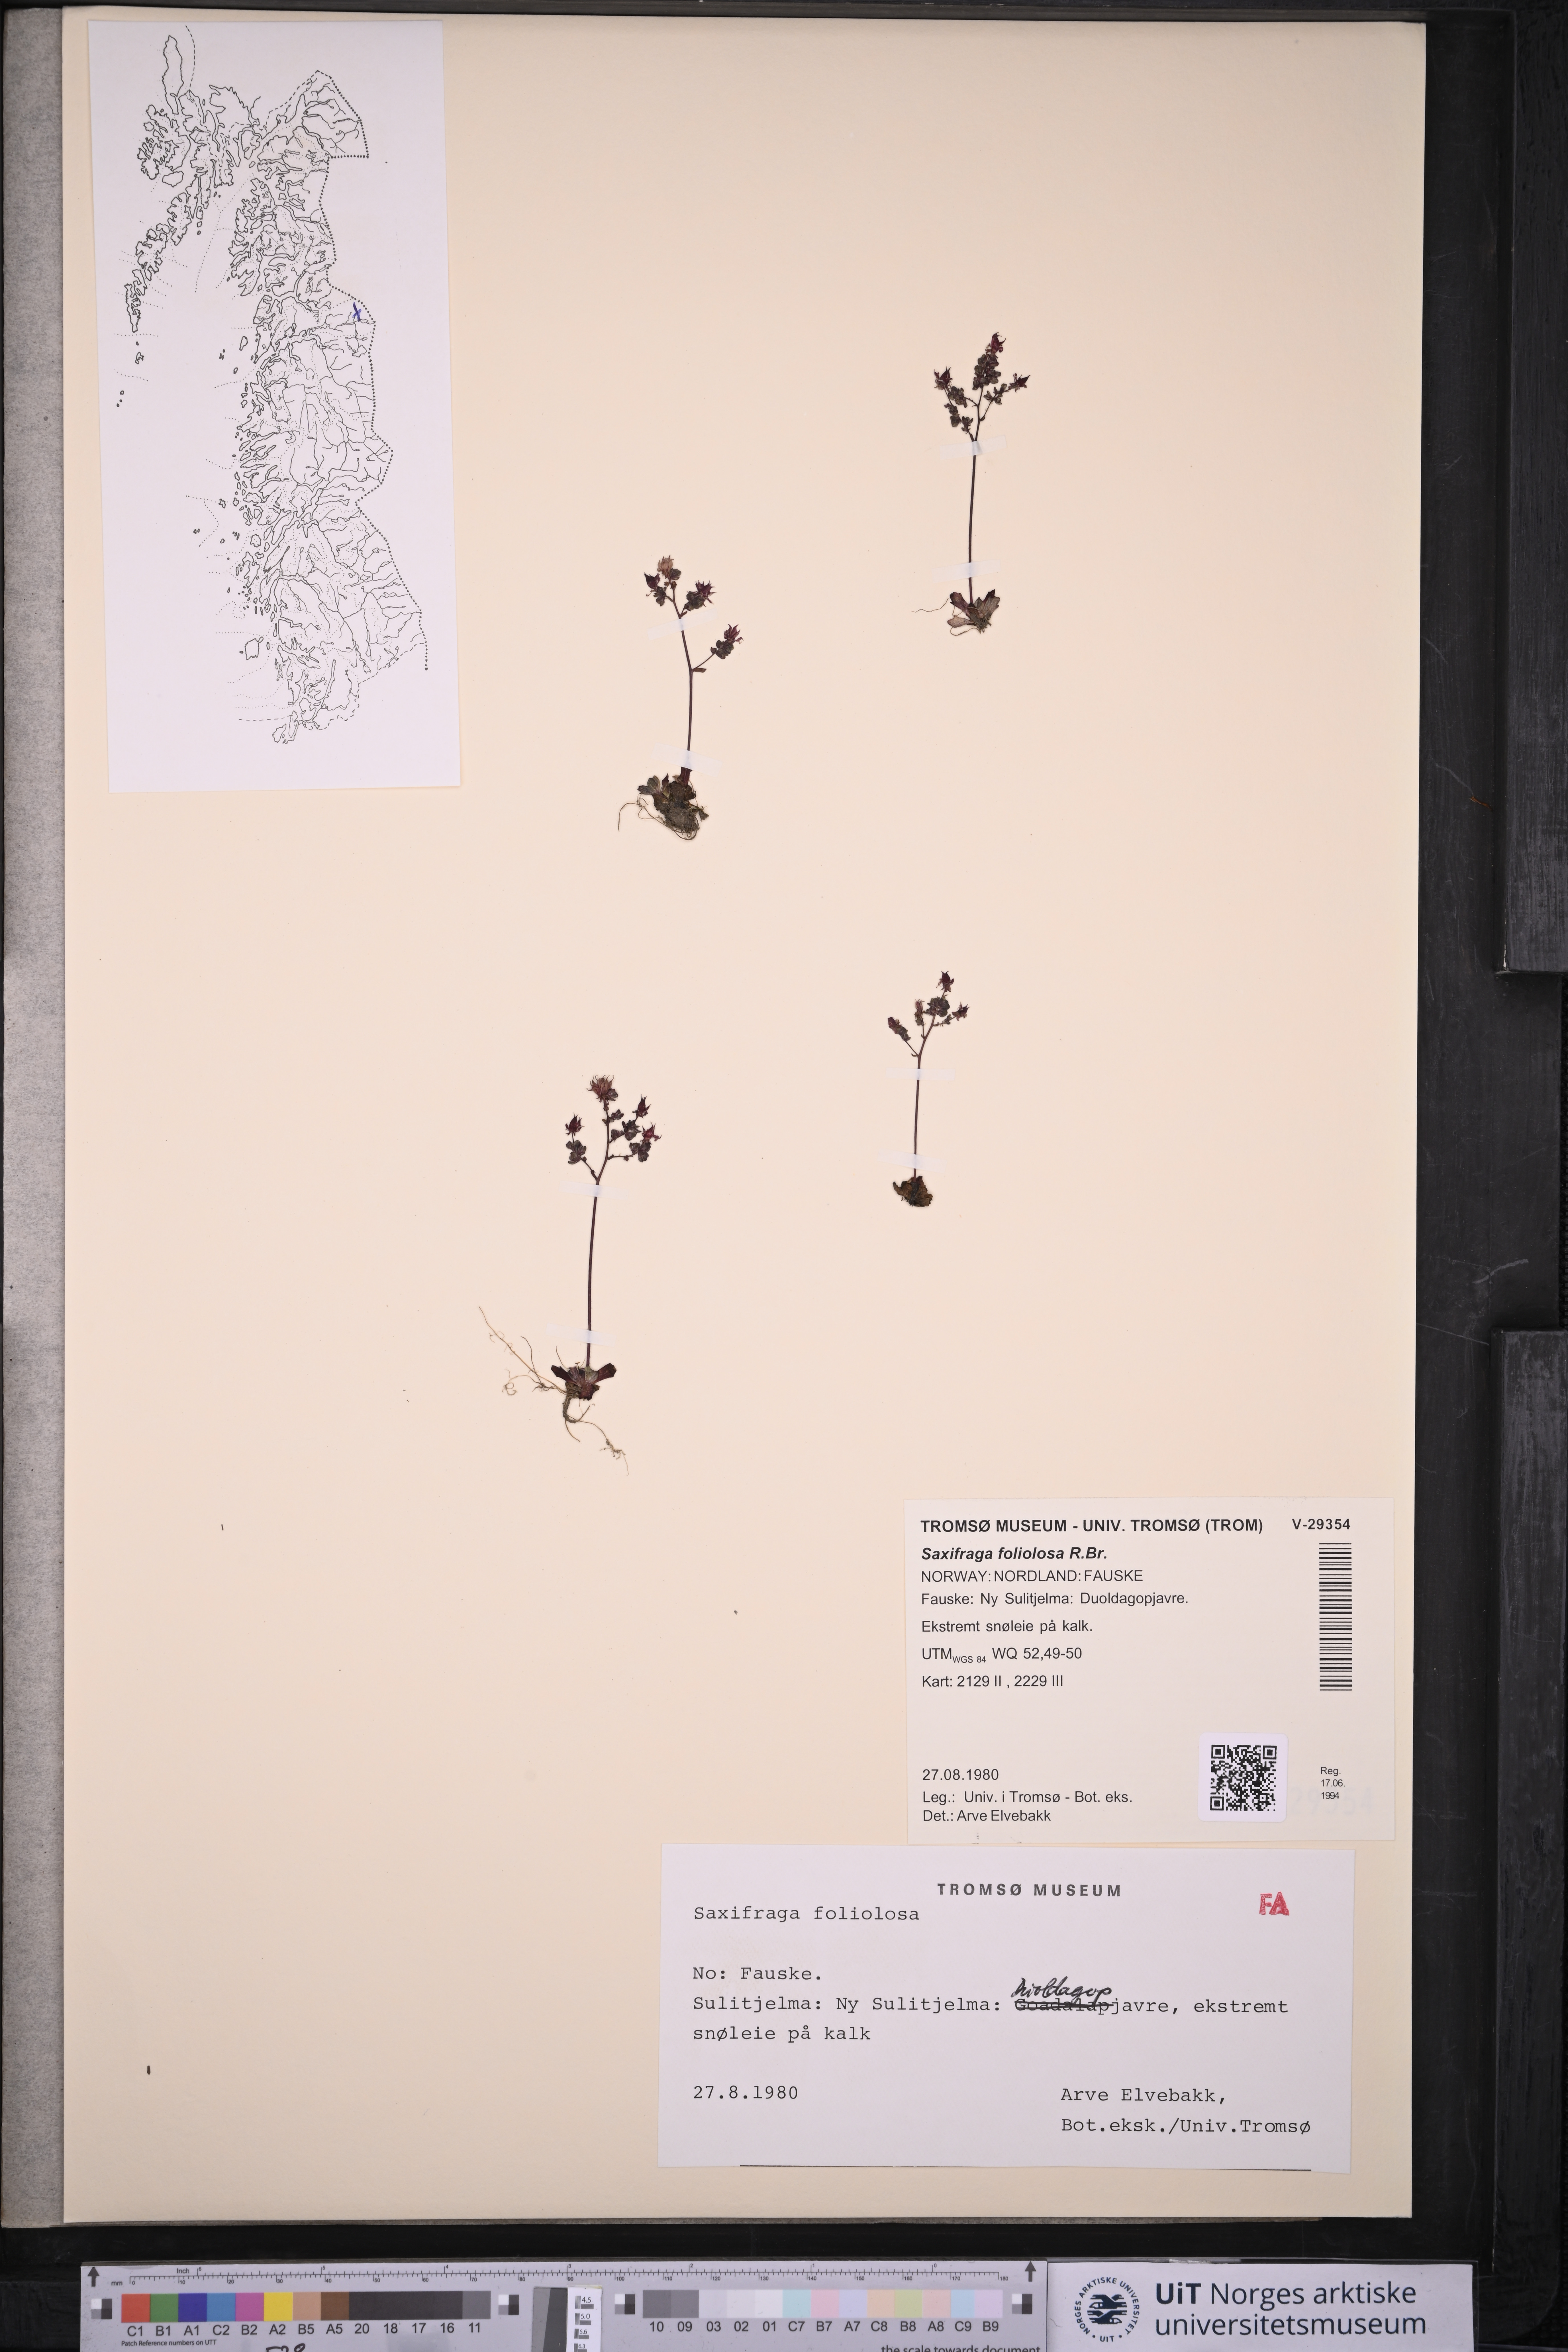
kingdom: Plantae
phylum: Tracheophyta
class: Magnoliopsida
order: Saxifragales
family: Saxifragaceae
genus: Micranthes
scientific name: Micranthes foliolosa
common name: Leafystem saxifrage
